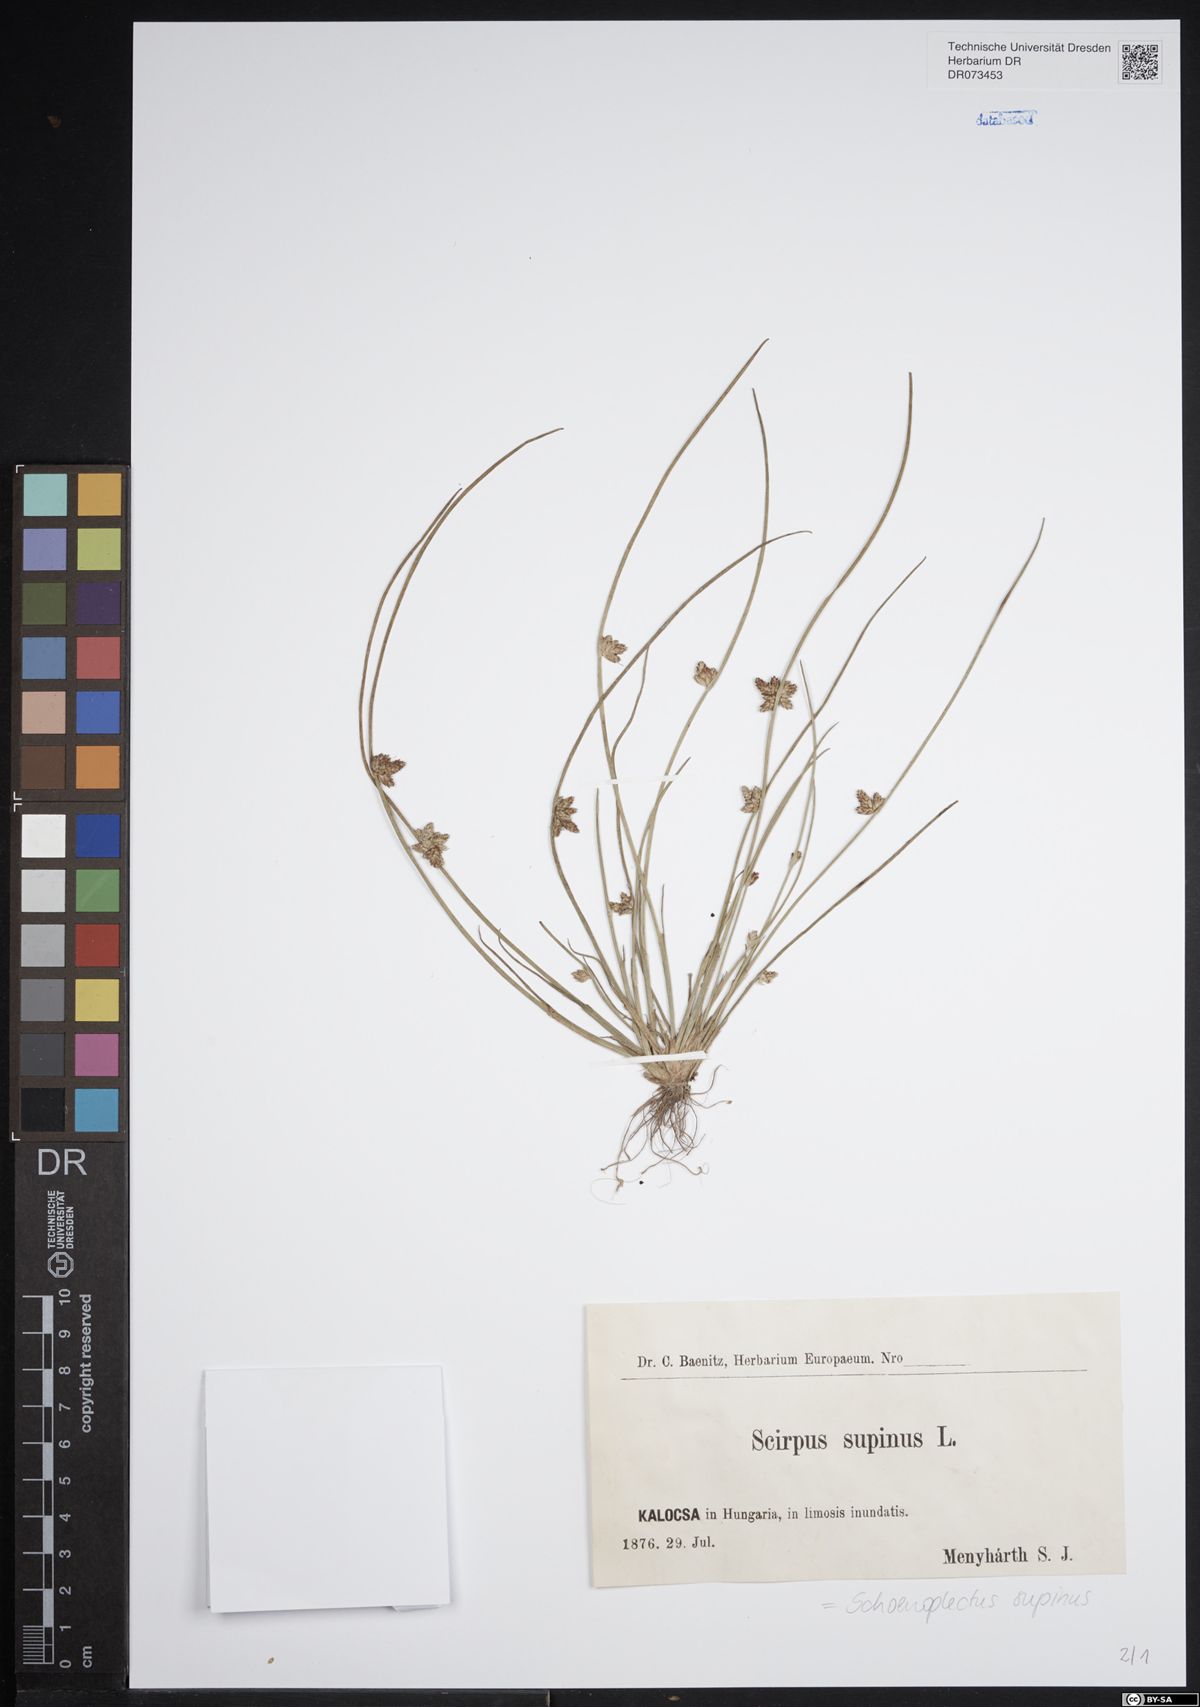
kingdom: Plantae
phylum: Tracheophyta
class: Liliopsida
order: Poales
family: Cyperaceae
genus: Schoenoplectiella
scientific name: Schoenoplectiella supina
